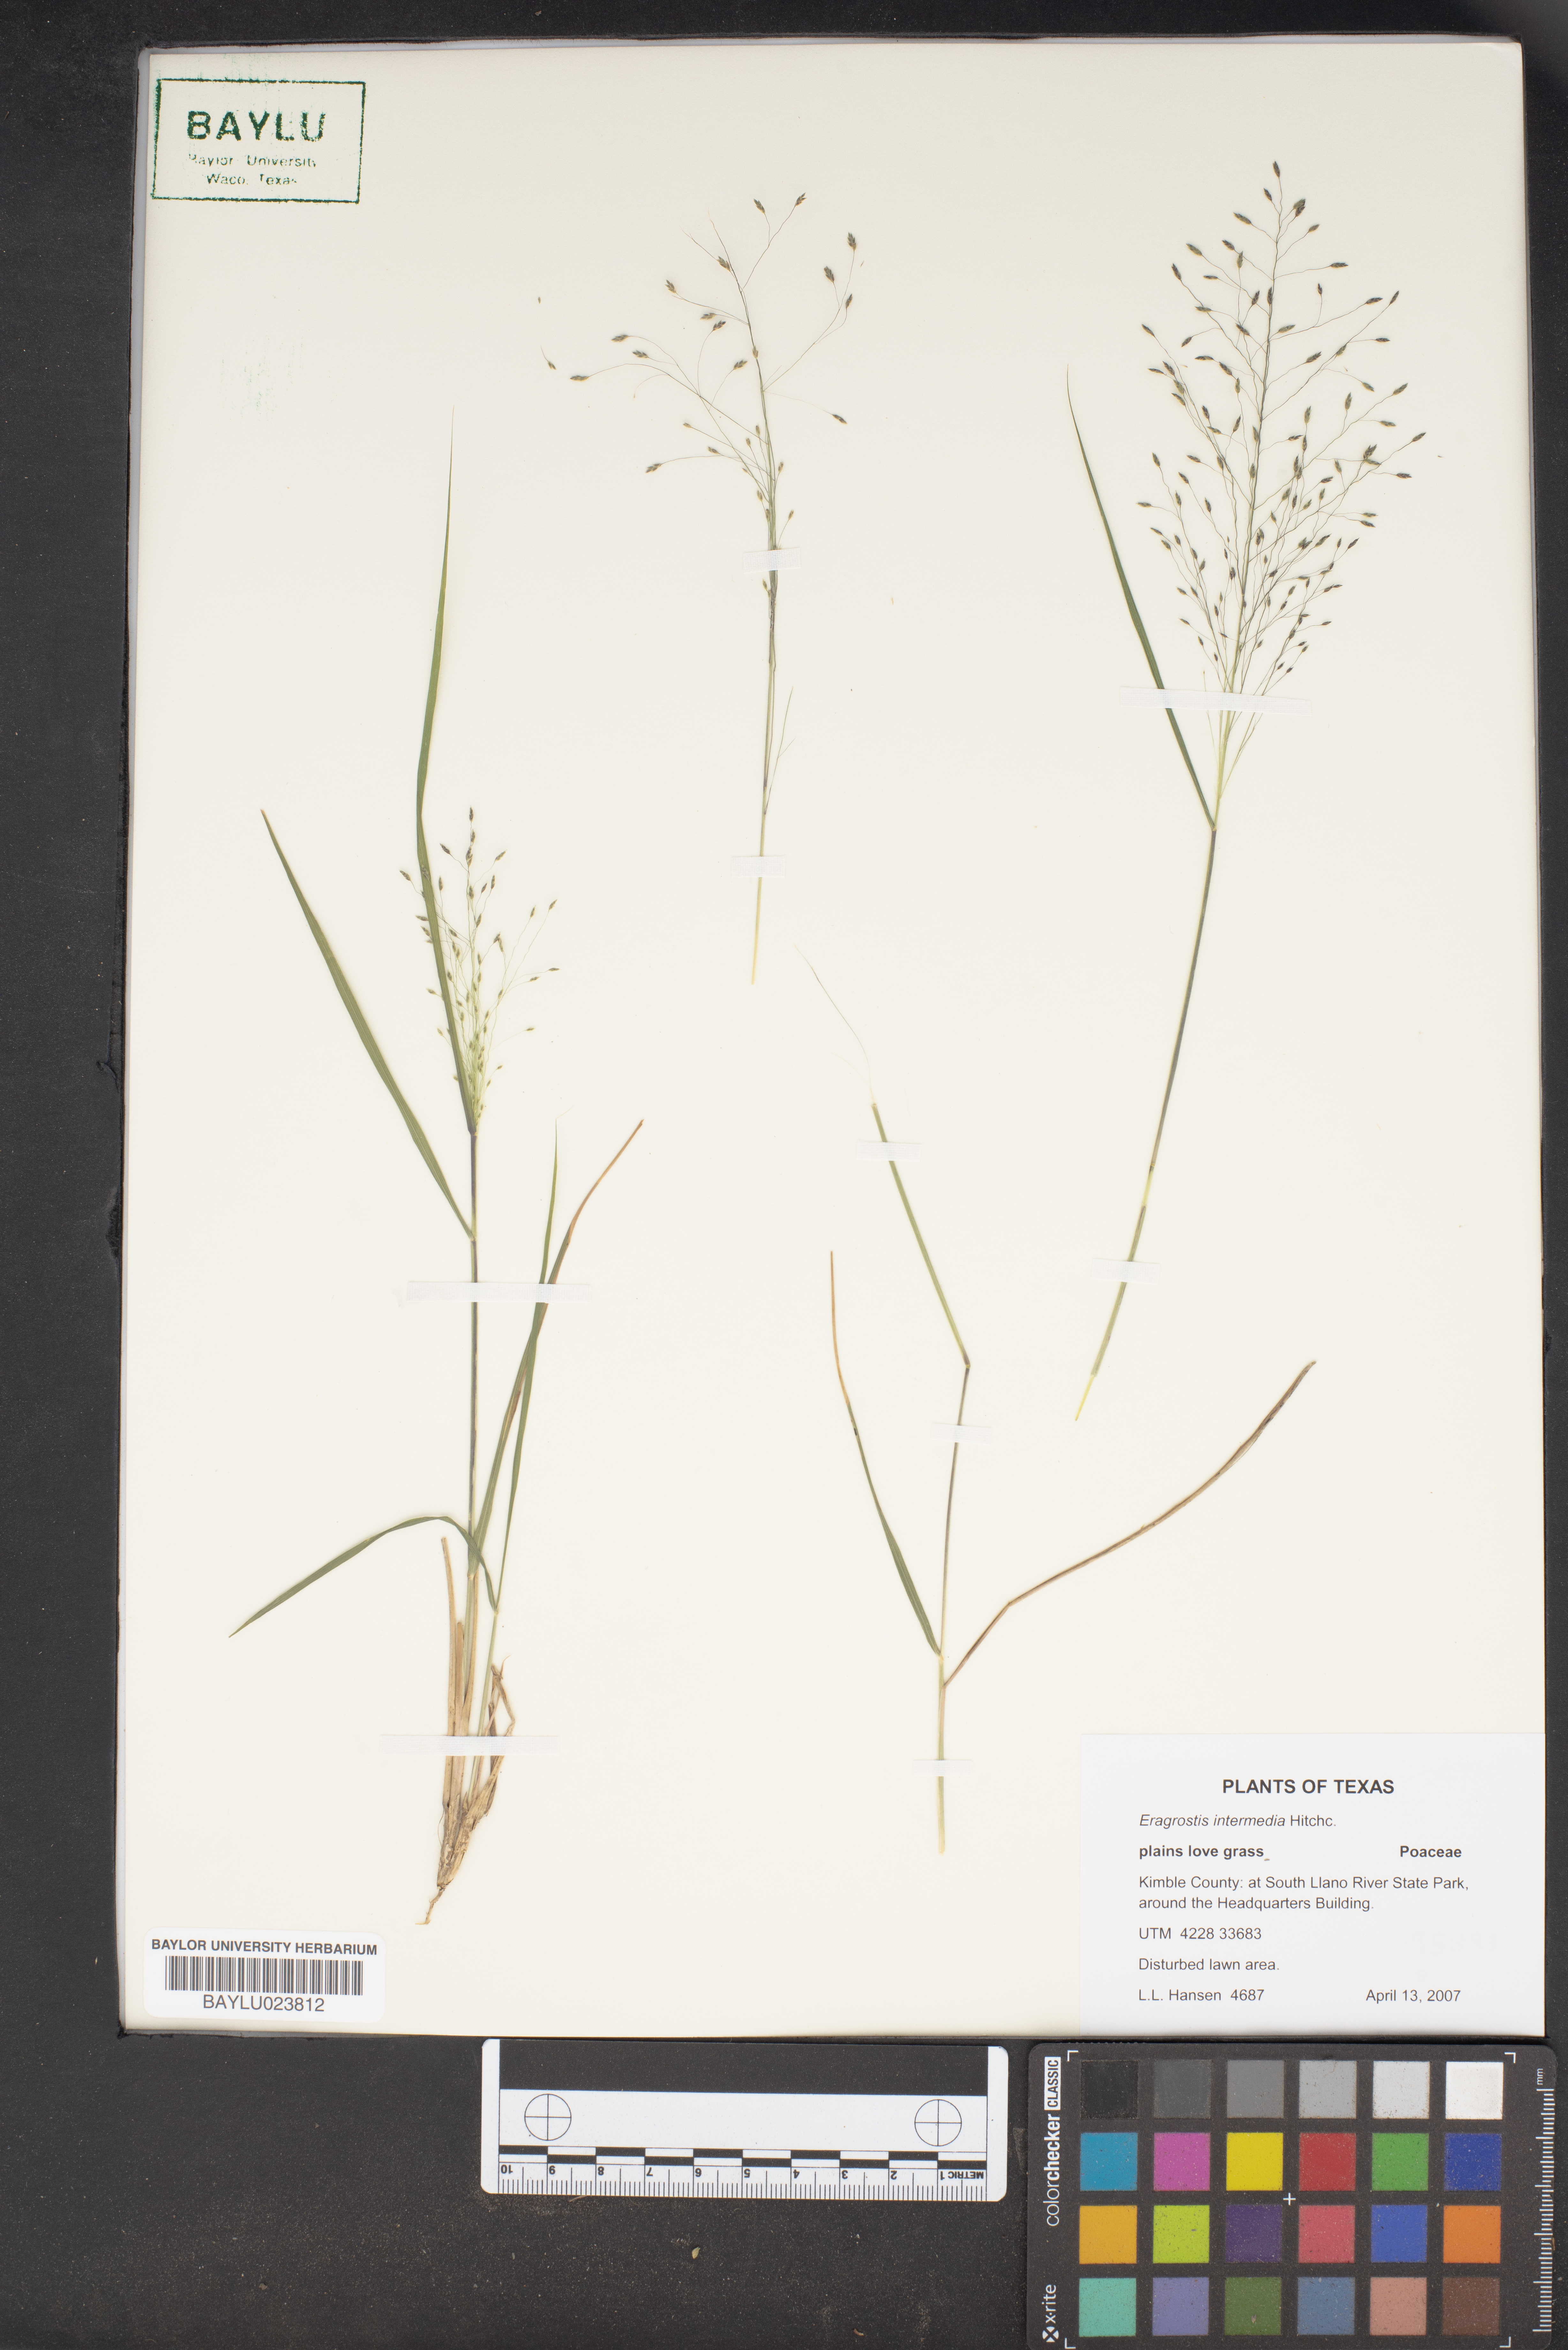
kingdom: Plantae
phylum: Tracheophyta
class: Liliopsida
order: Poales
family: Poaceae
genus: Eragrostis
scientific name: Eragrostis intermedia
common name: Plains love grass
